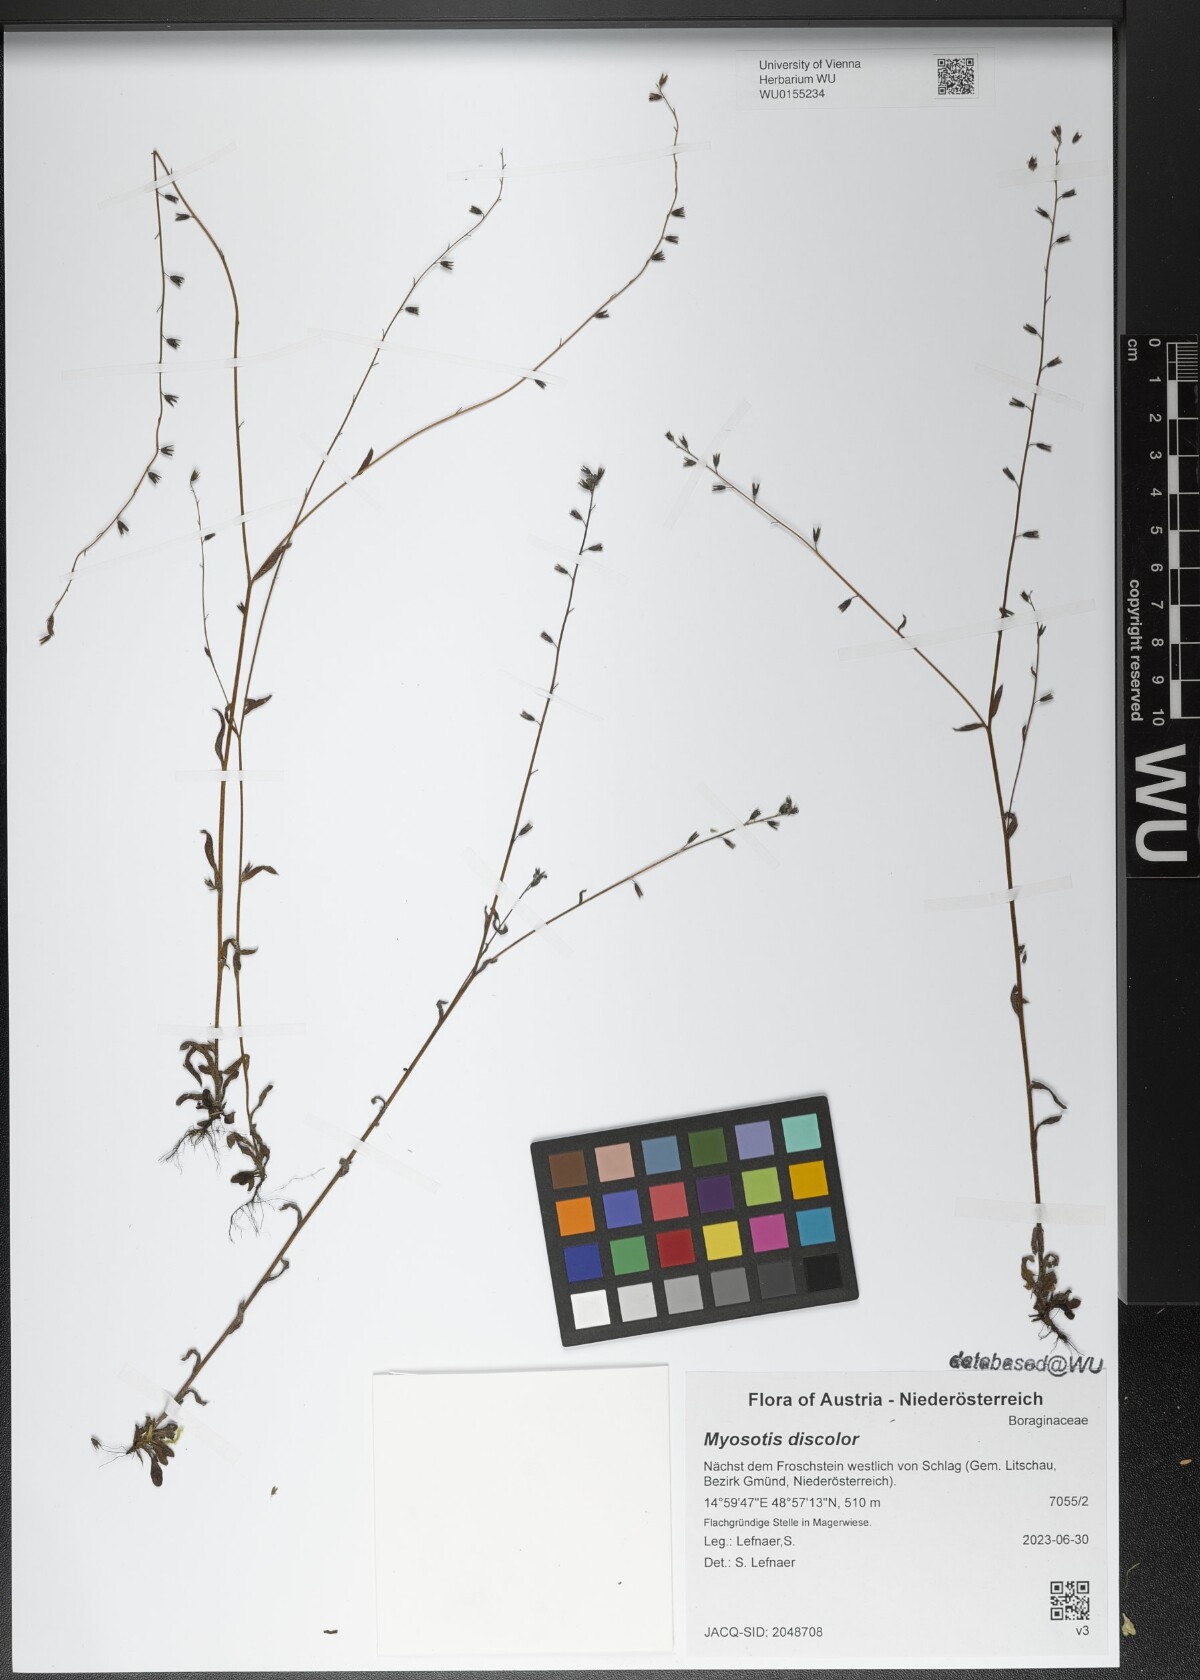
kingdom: Plantae
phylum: Tracheophyta
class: Magnoliopsida
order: Boraginales
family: Boraginaceae
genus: Myosotis
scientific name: Myosotis discolor
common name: Changing forget-me-not
